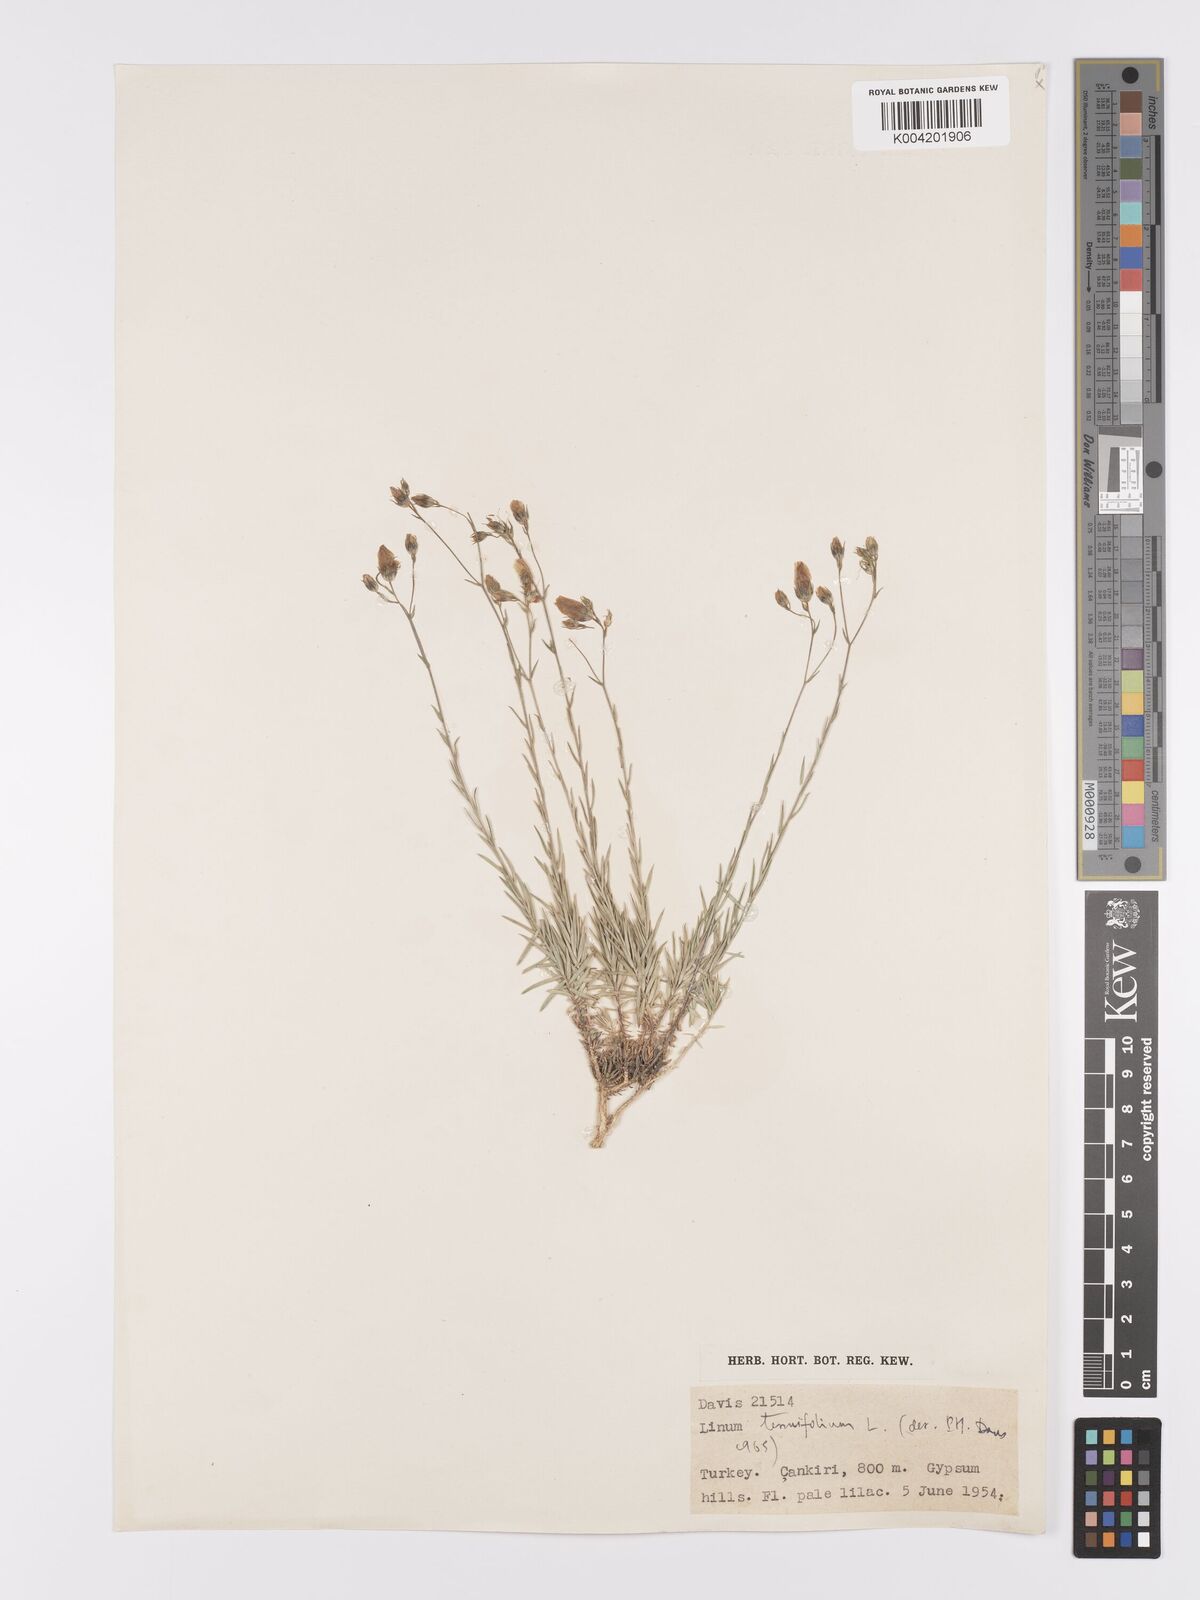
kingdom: Plantae
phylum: Tracheophyta
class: Magnoliopsida
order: Malpighiales
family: Linaceae
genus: Linum
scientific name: Linum
